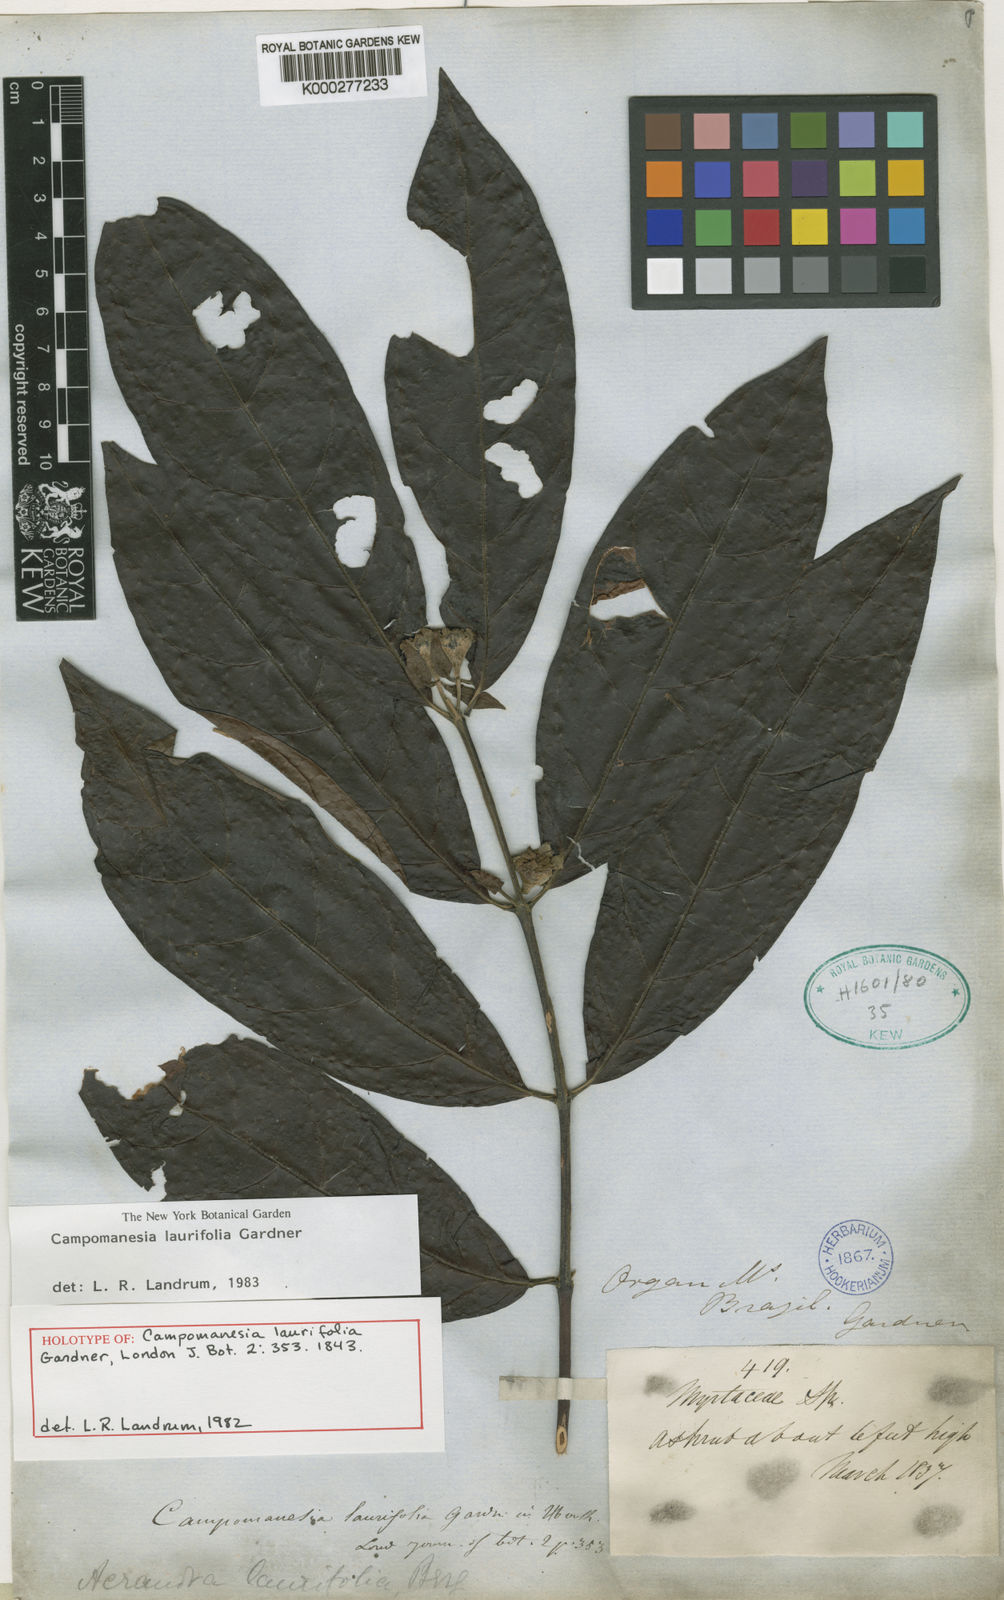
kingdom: Plantae
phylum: Tracheophyta
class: Magnoliopsida
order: Myrtales
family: Myrtaceae
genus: Campomanesia
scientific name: Campomanesia laurifolia
